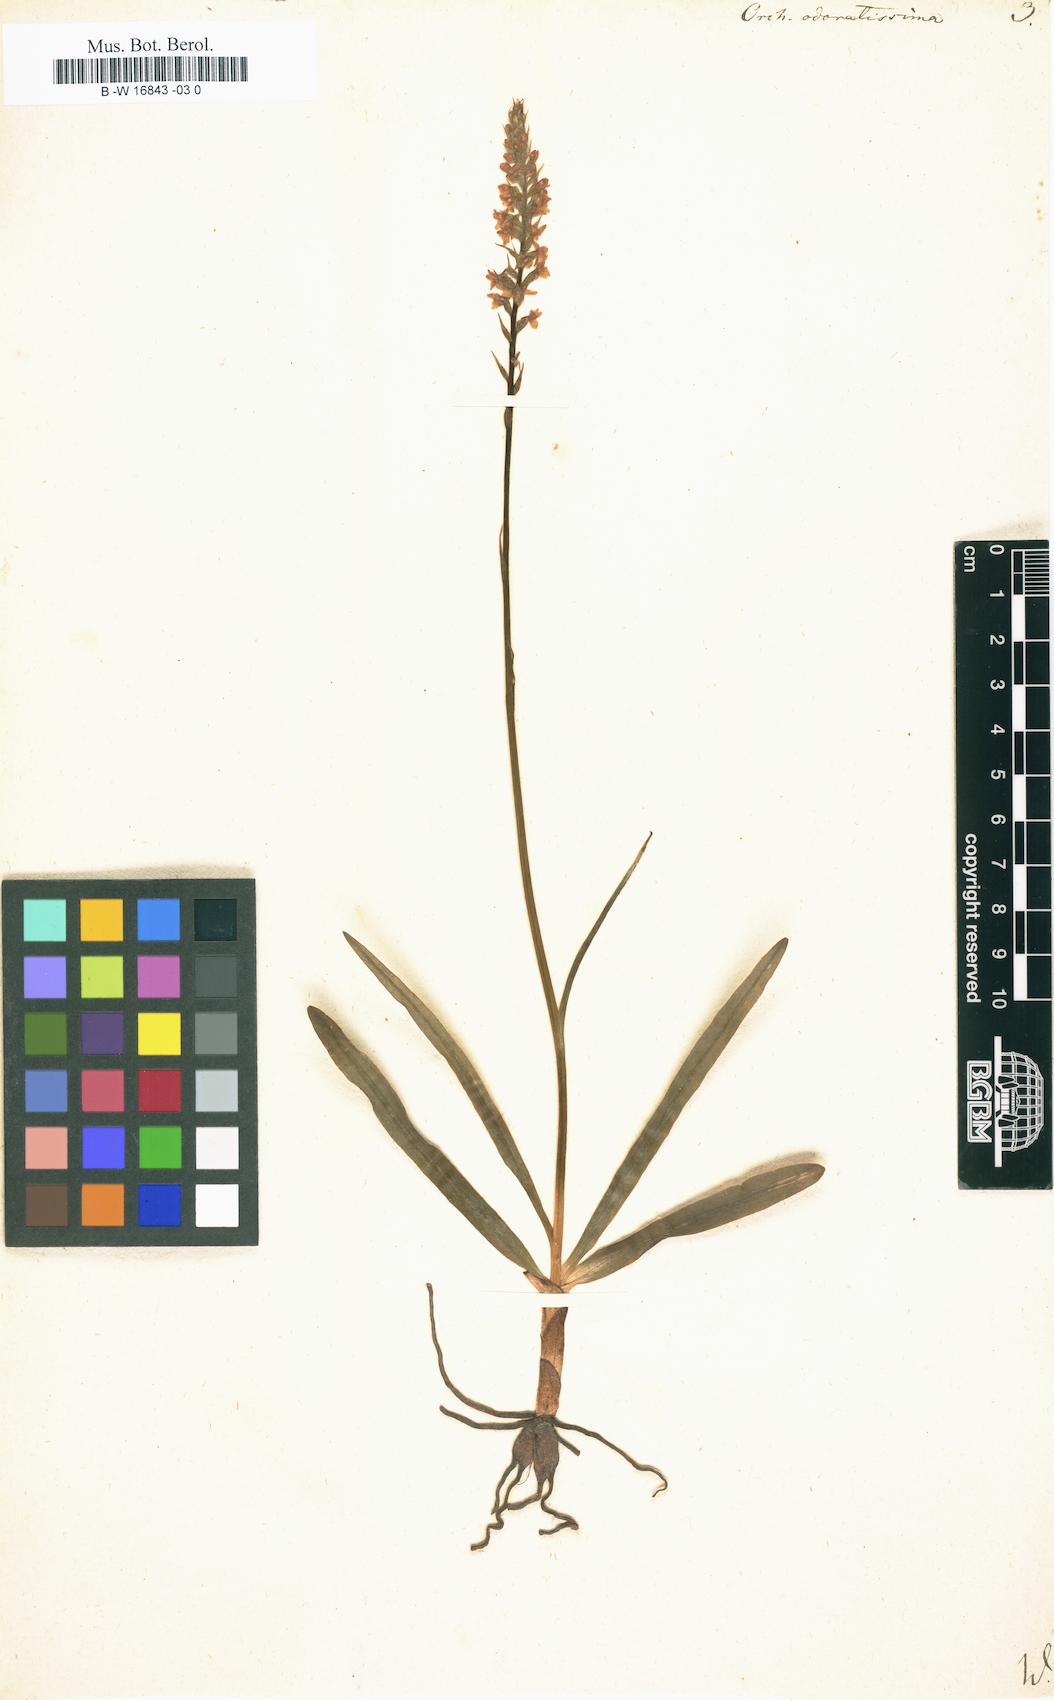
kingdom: Plantae
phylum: Tracheophyta
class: Liliopsida
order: Asparagales
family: Orchidaceae
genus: Gymnadenia
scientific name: Gymnadenia odoratissima
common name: Scented gymnadenia
